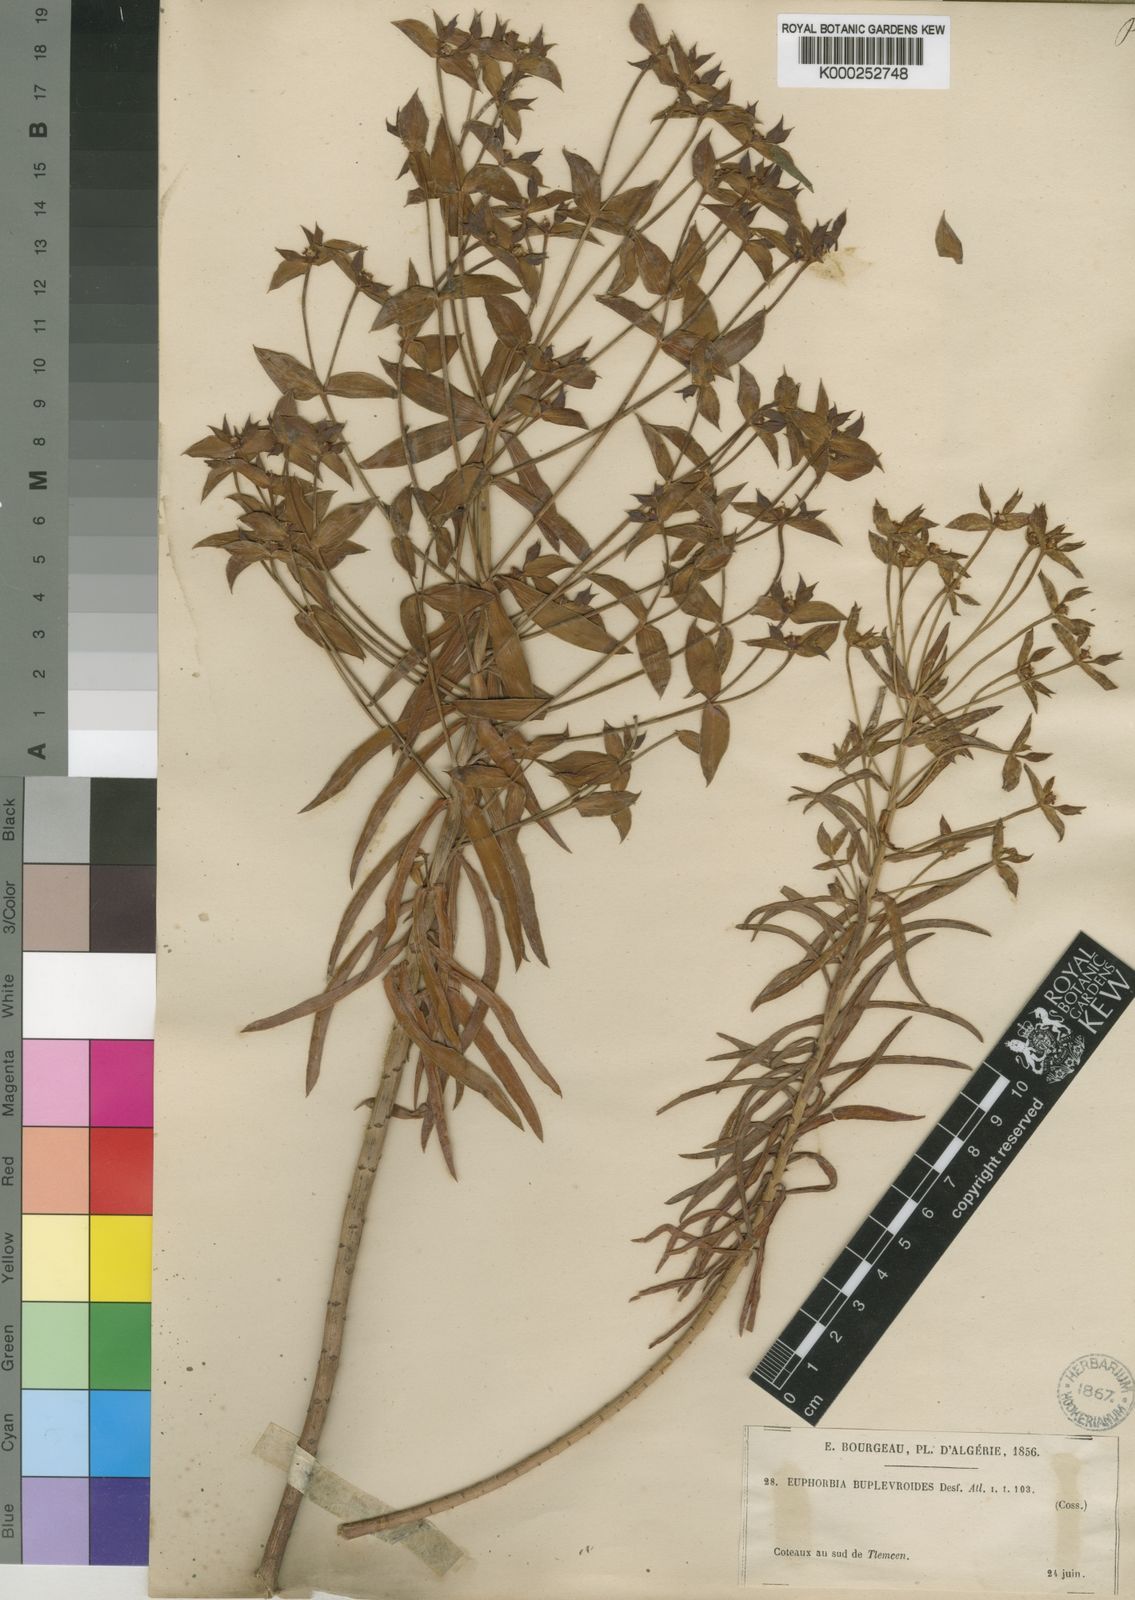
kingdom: Plantae
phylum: Tracheophyta
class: Magnoliopsida
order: Malpighiales
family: Euphorbiaceae
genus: Euphorbia
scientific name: Euphorbia bupleuroides
